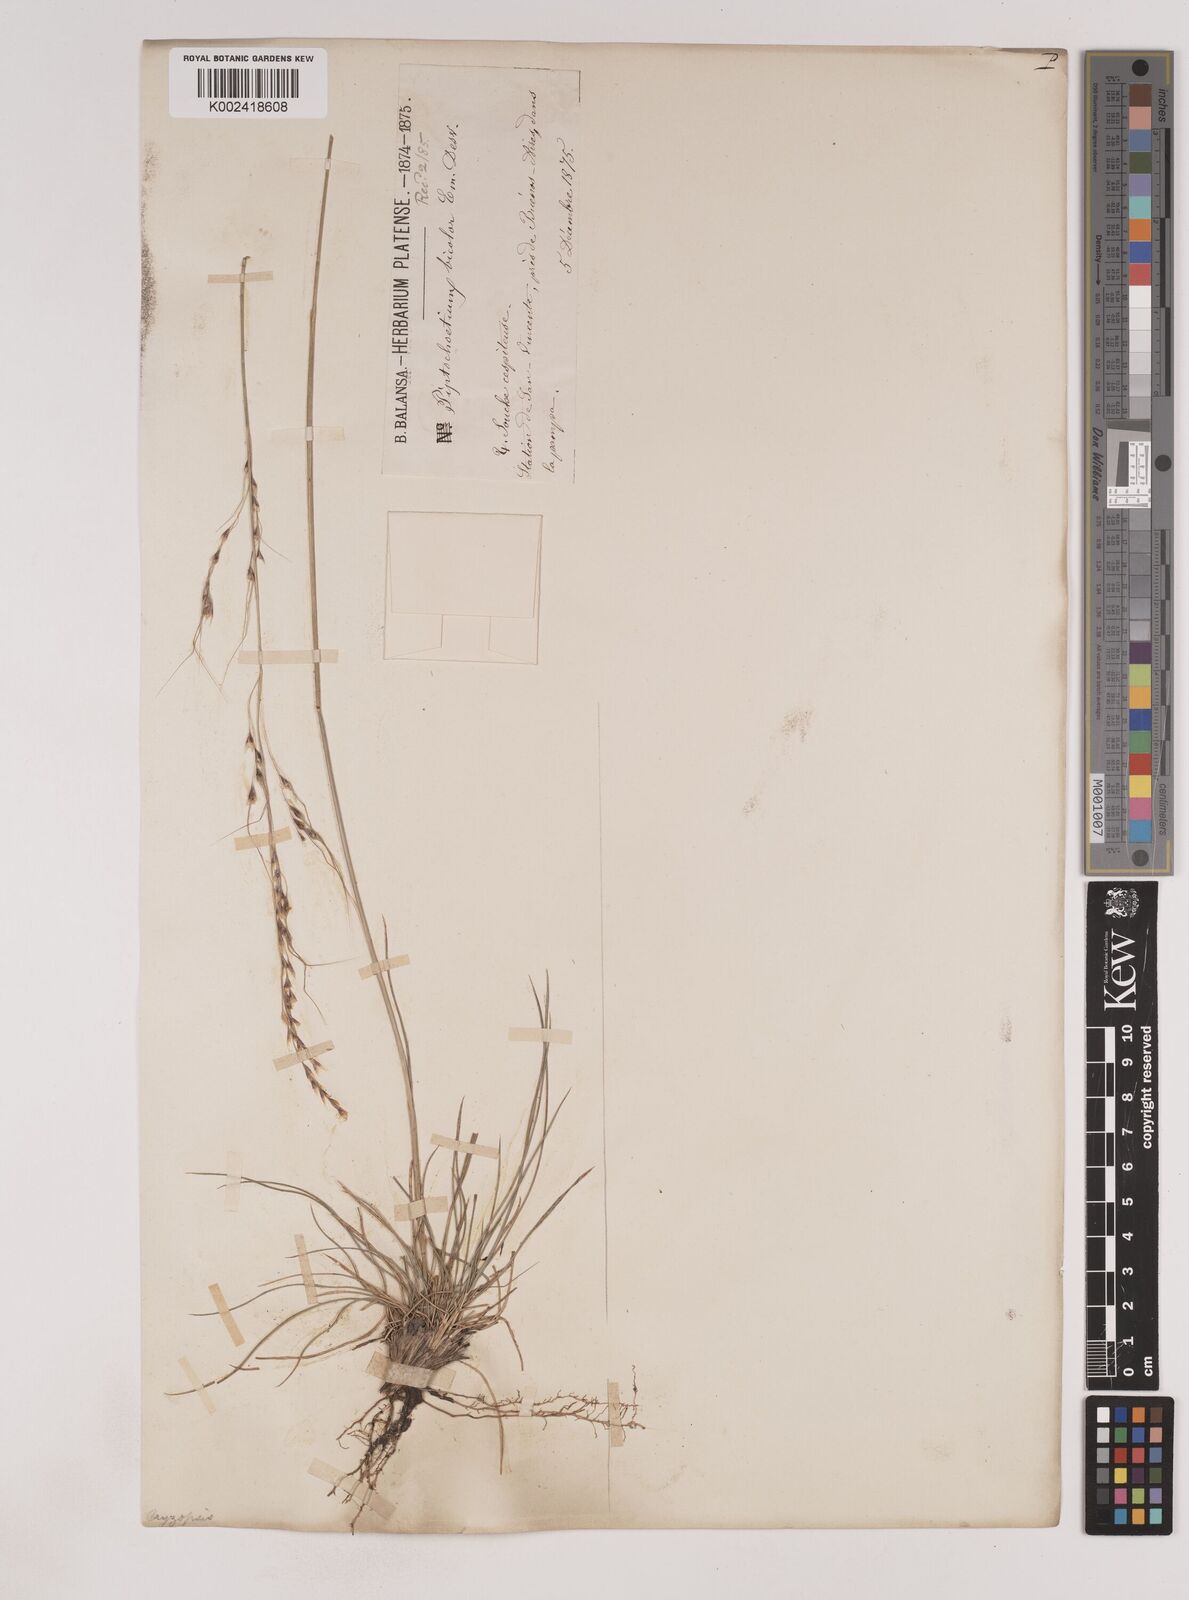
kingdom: Plantae
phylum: Tracheophyta
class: Liliopsida
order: Poales
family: Poaceae
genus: Piptochaetium
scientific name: Piptochaetium
